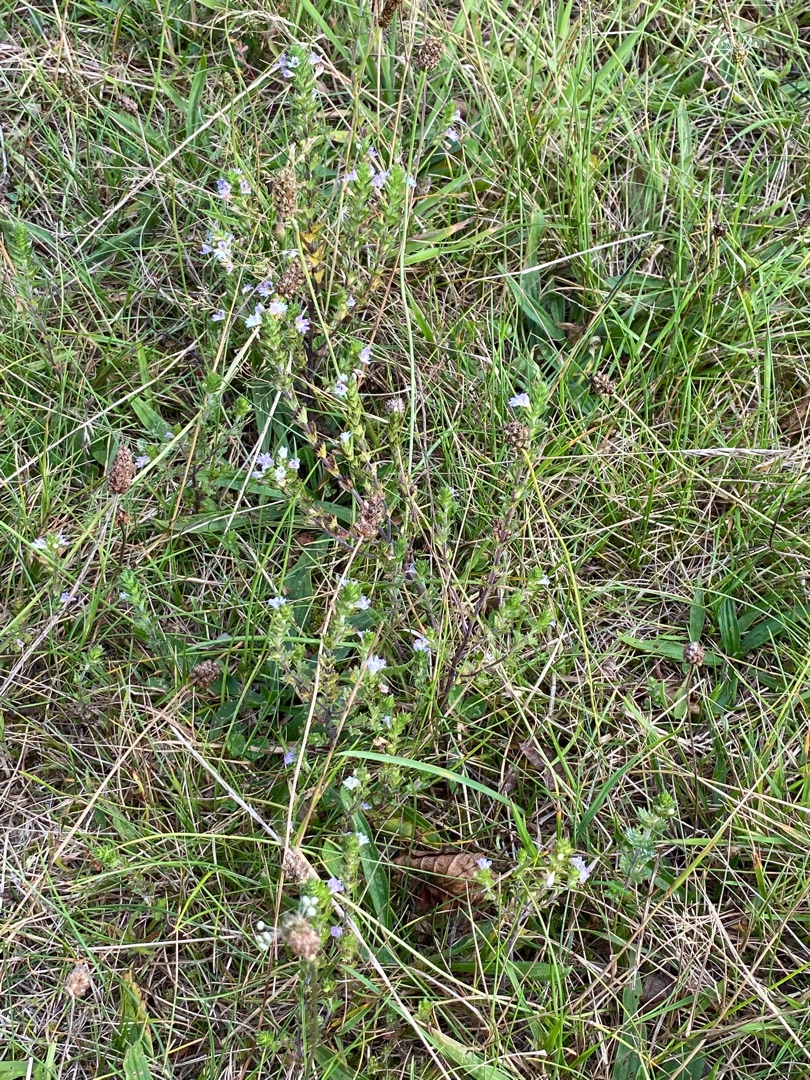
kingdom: Plantae
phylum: Tracheophyta
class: Magnoliopsida
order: Lamiales
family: Orobanchaceae
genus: Euphrasia
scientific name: Euphrasia stricta
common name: Spids øjentrøst
